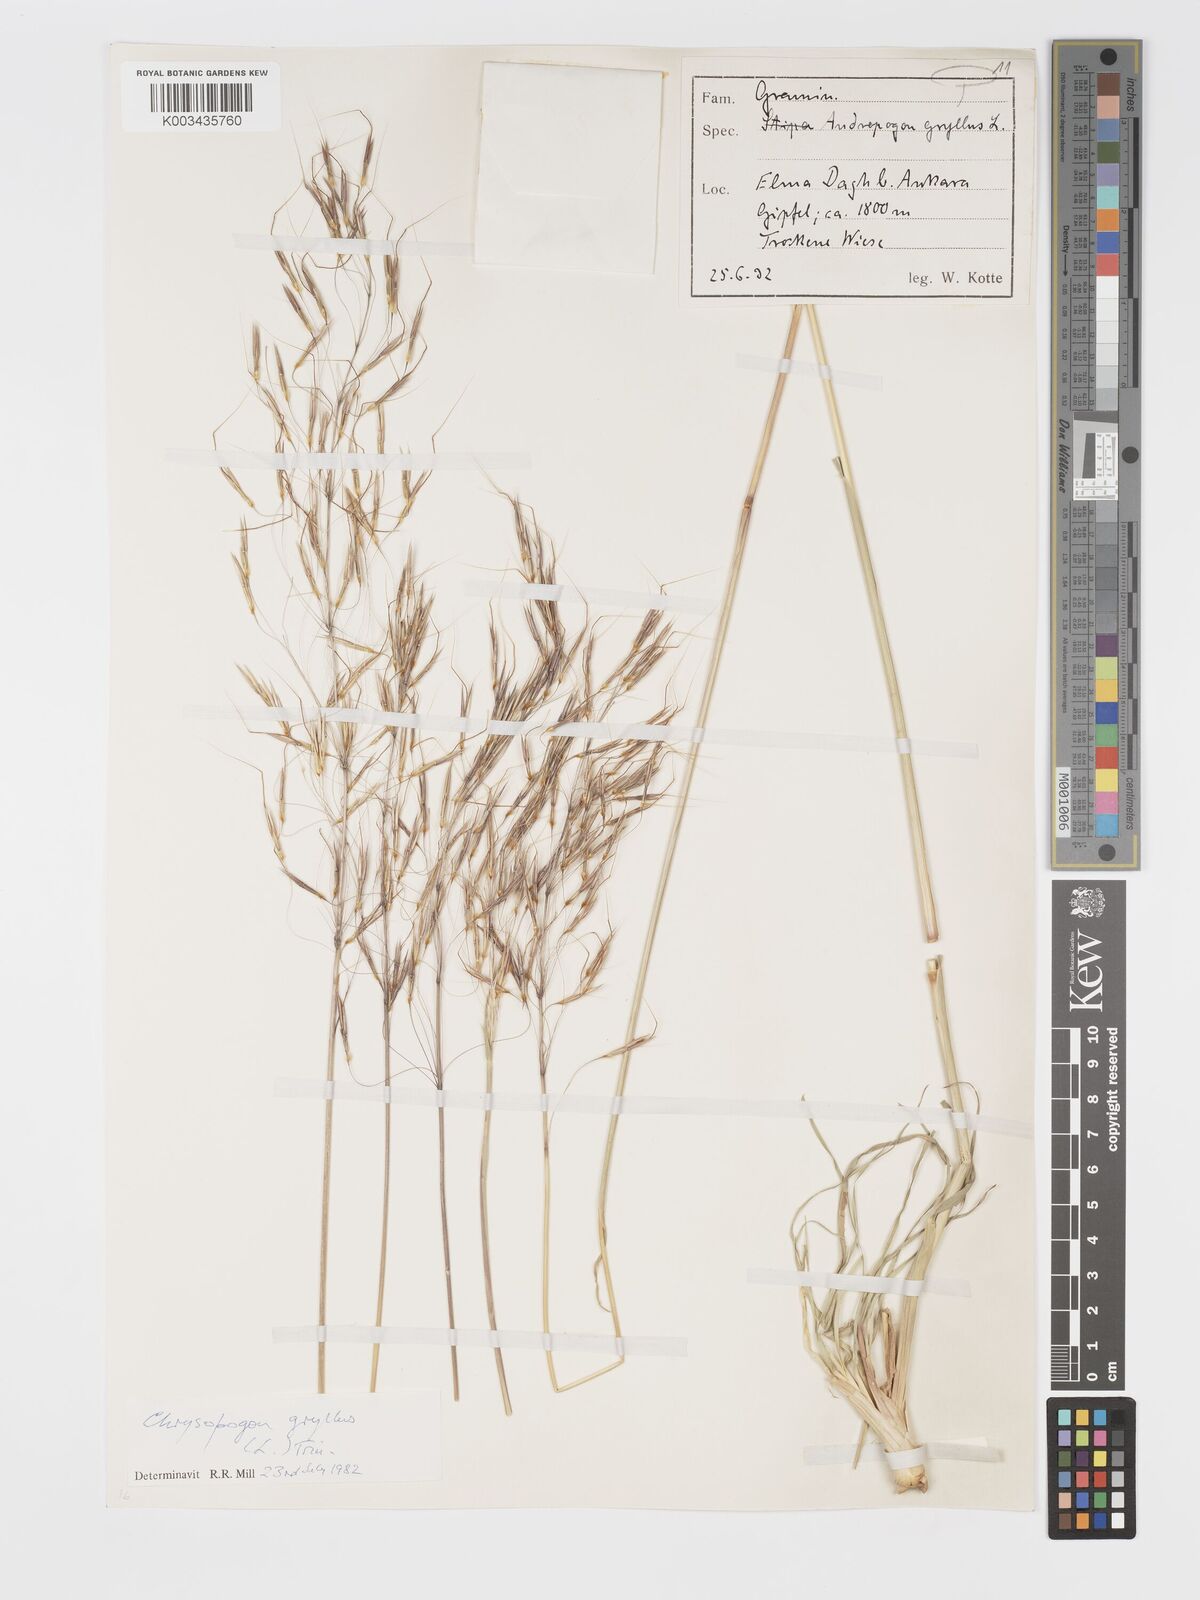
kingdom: Plantae
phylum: Tracheophyta
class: Liliopsida
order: Poales
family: Poaceae
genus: Chrysopogon
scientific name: Chrysopogon gryllus
